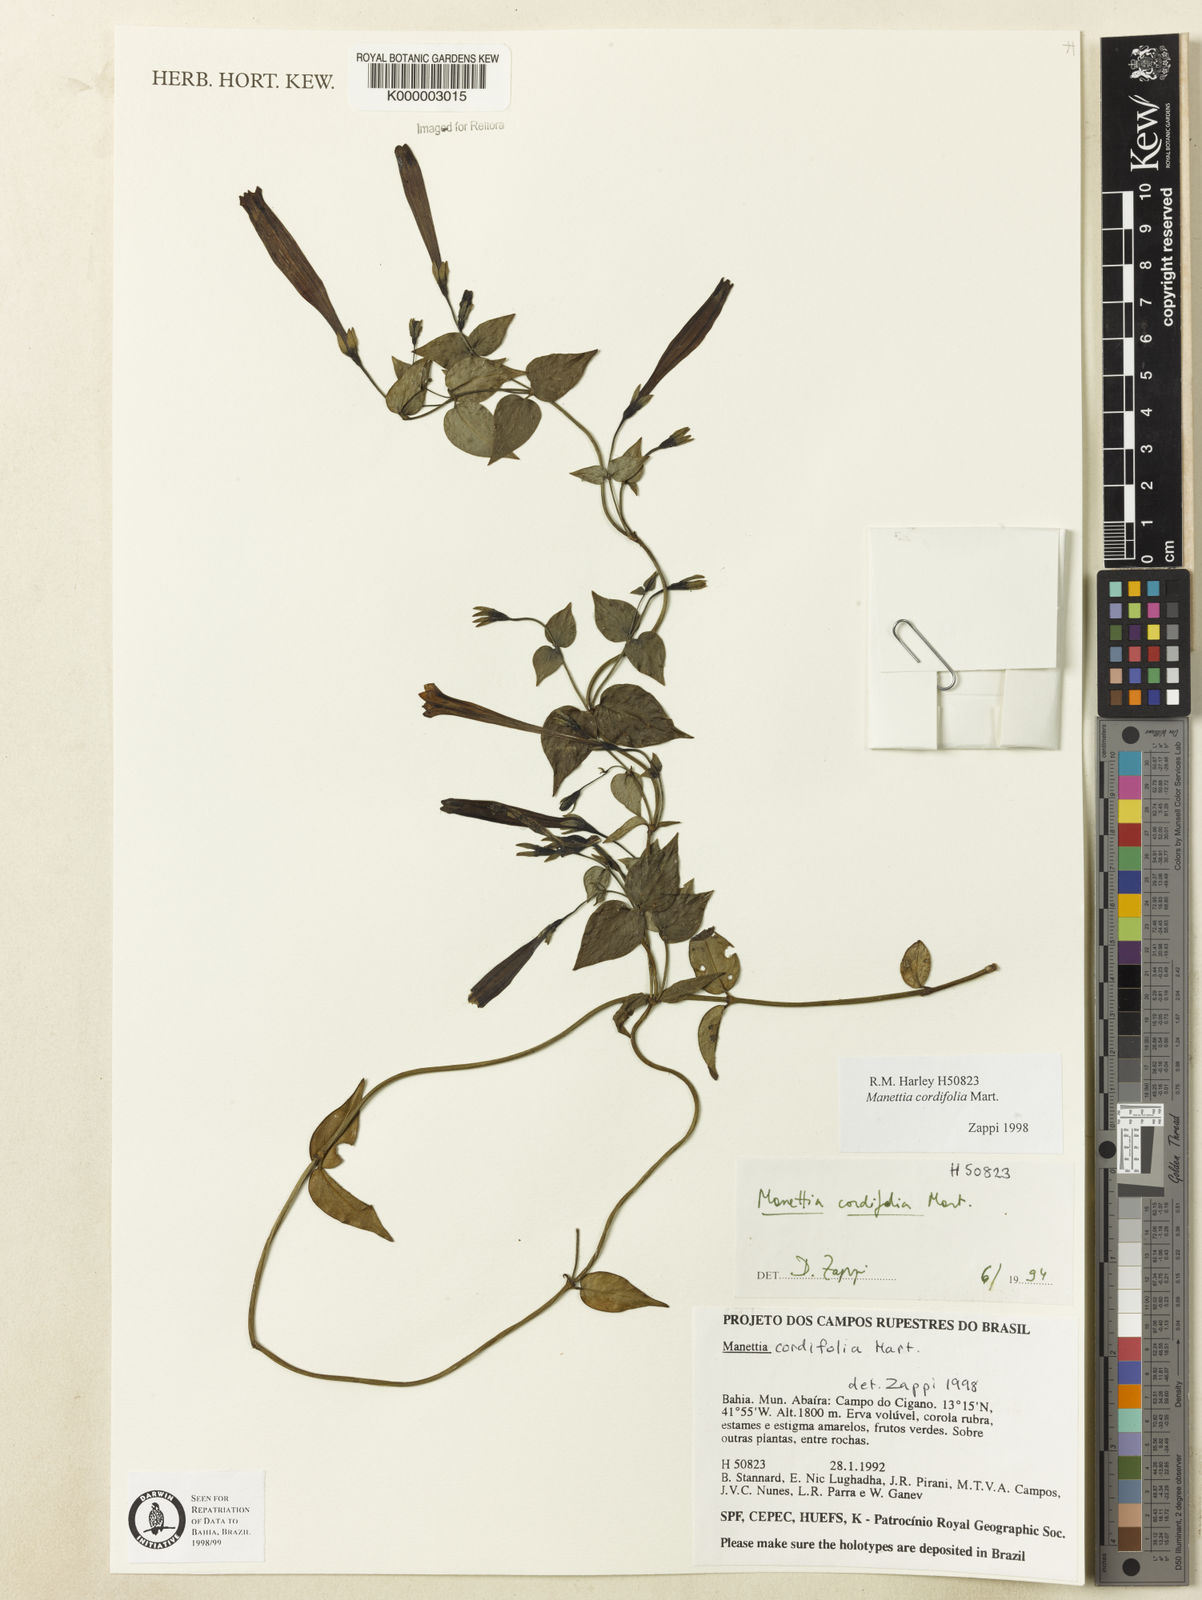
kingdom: Plantae
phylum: Tracheophyta
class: Magnoliopsida
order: Gentianales
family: Rubiaceae
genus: Manettia
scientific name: Manettia cordifolia
